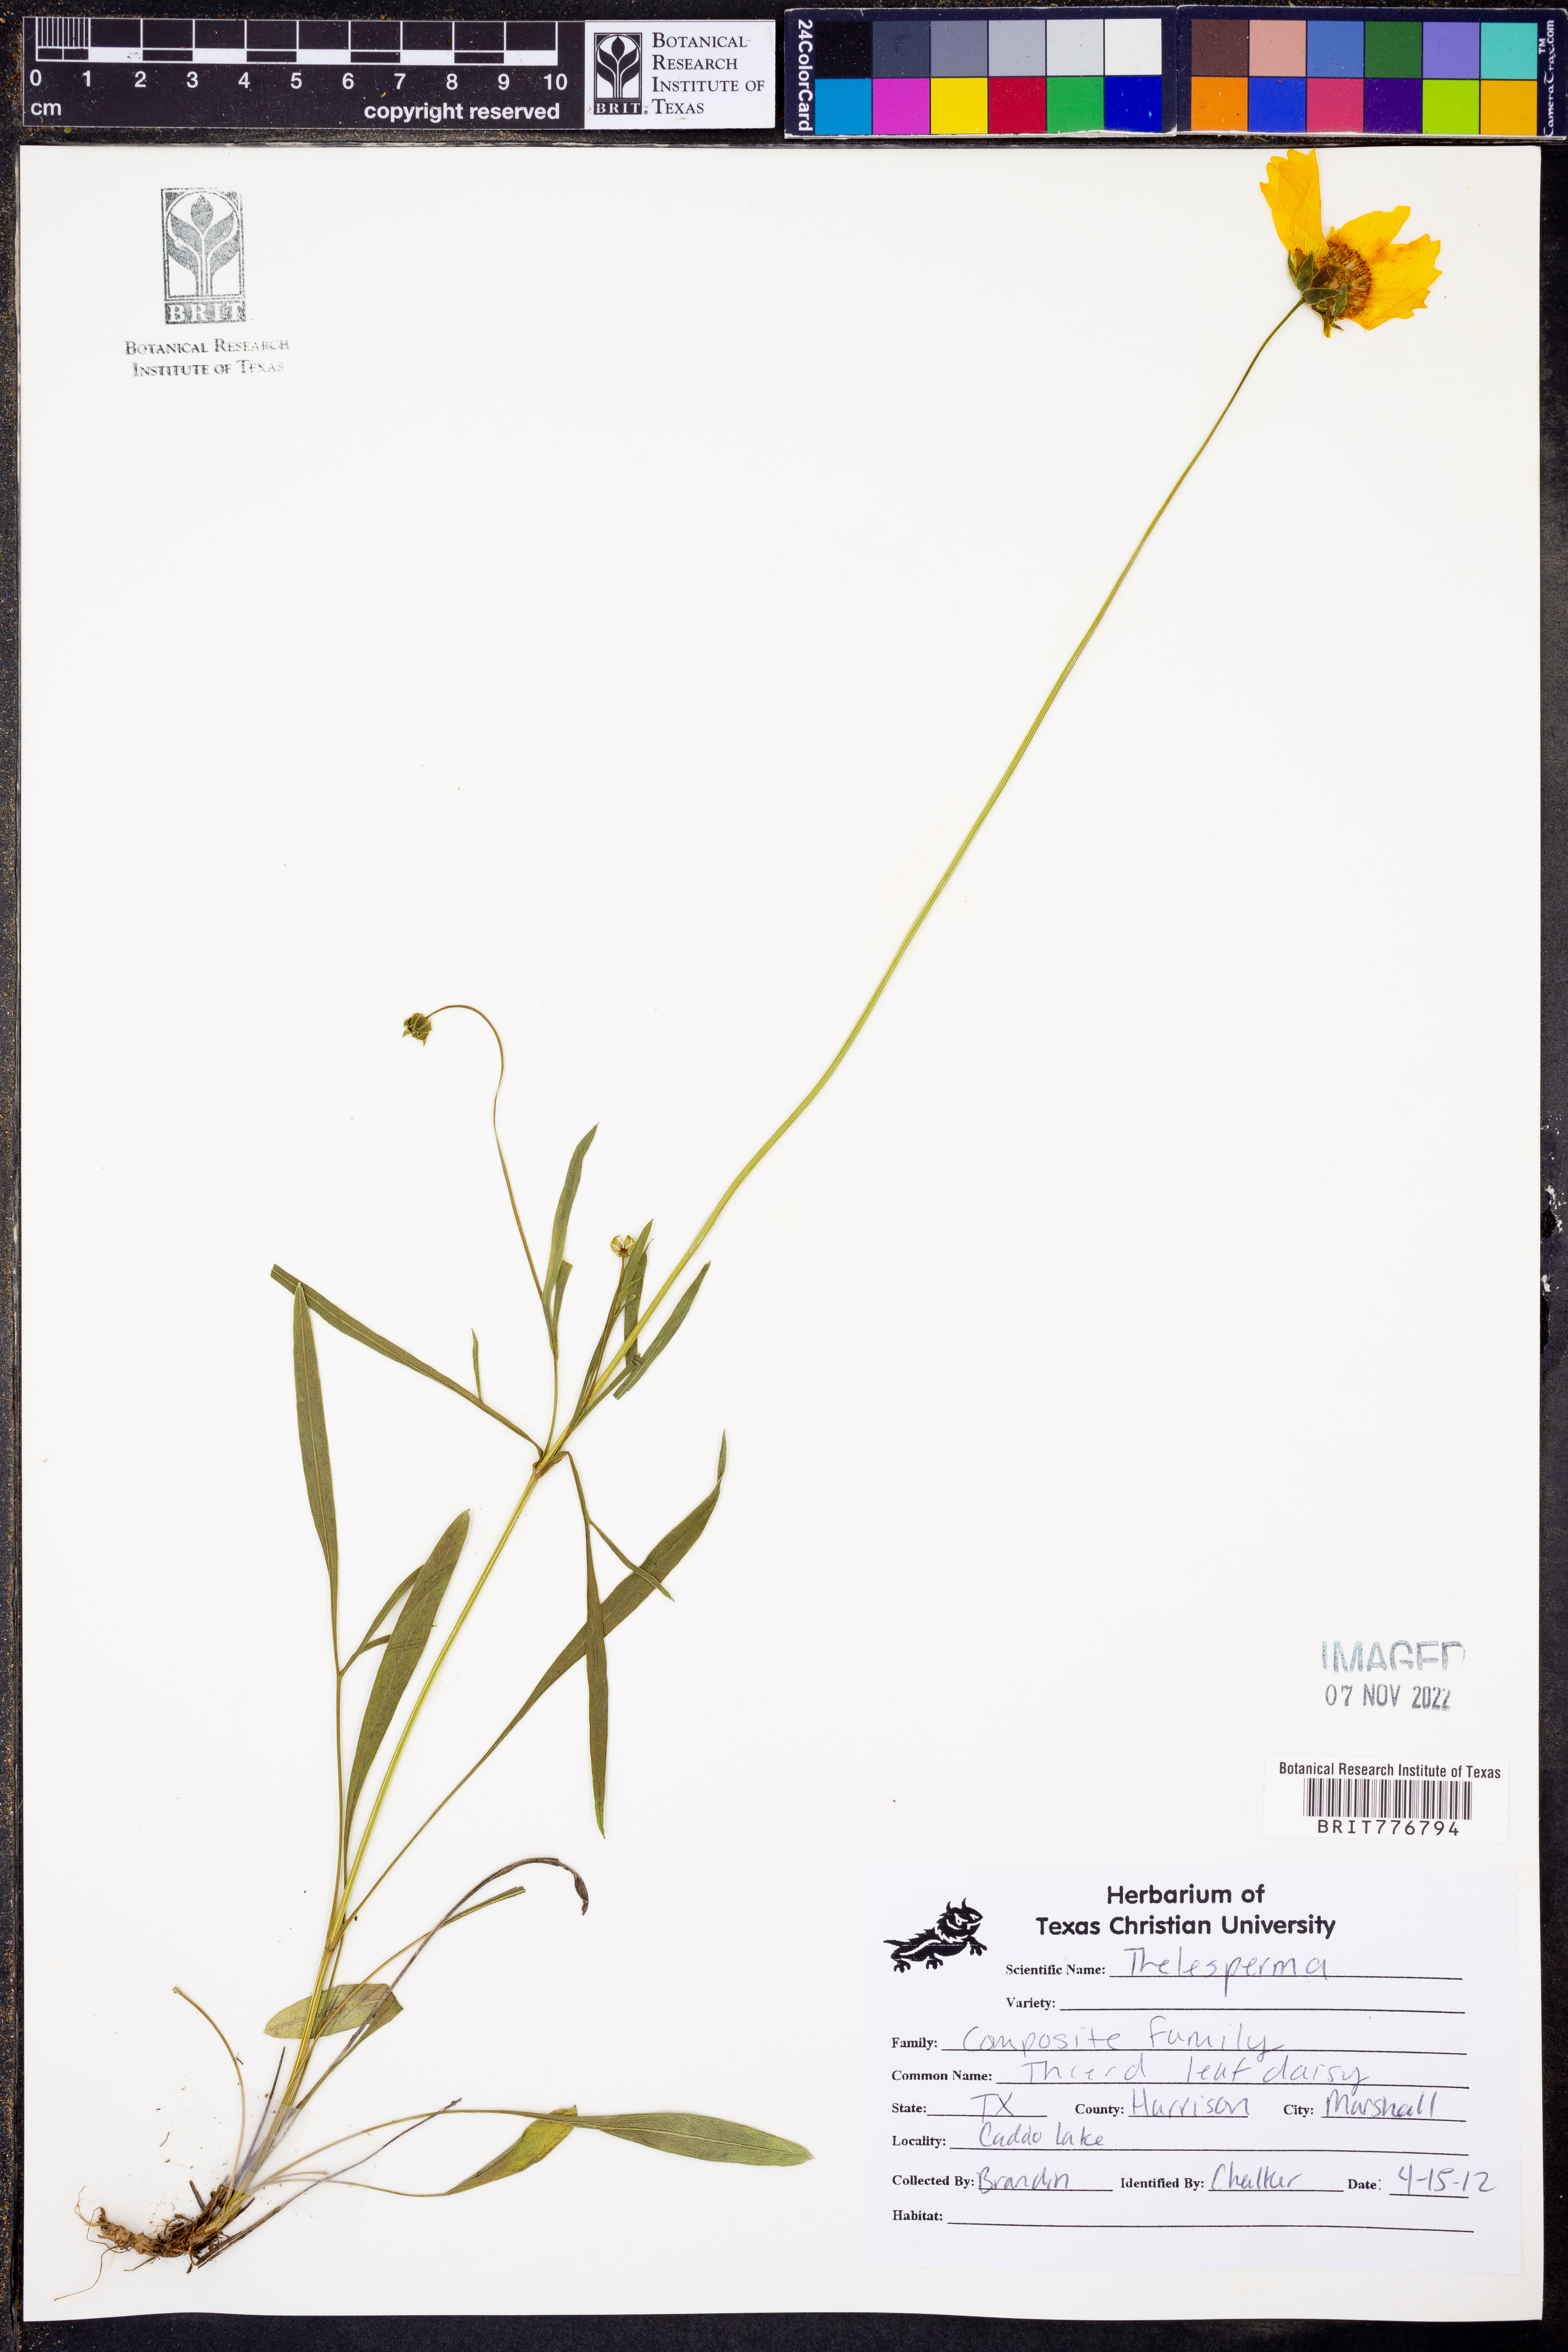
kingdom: Plantae
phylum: Tracheophyta
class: Magnoliopsida
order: Asterales
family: Asteraceae
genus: Thelesperma
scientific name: Thelesperma
